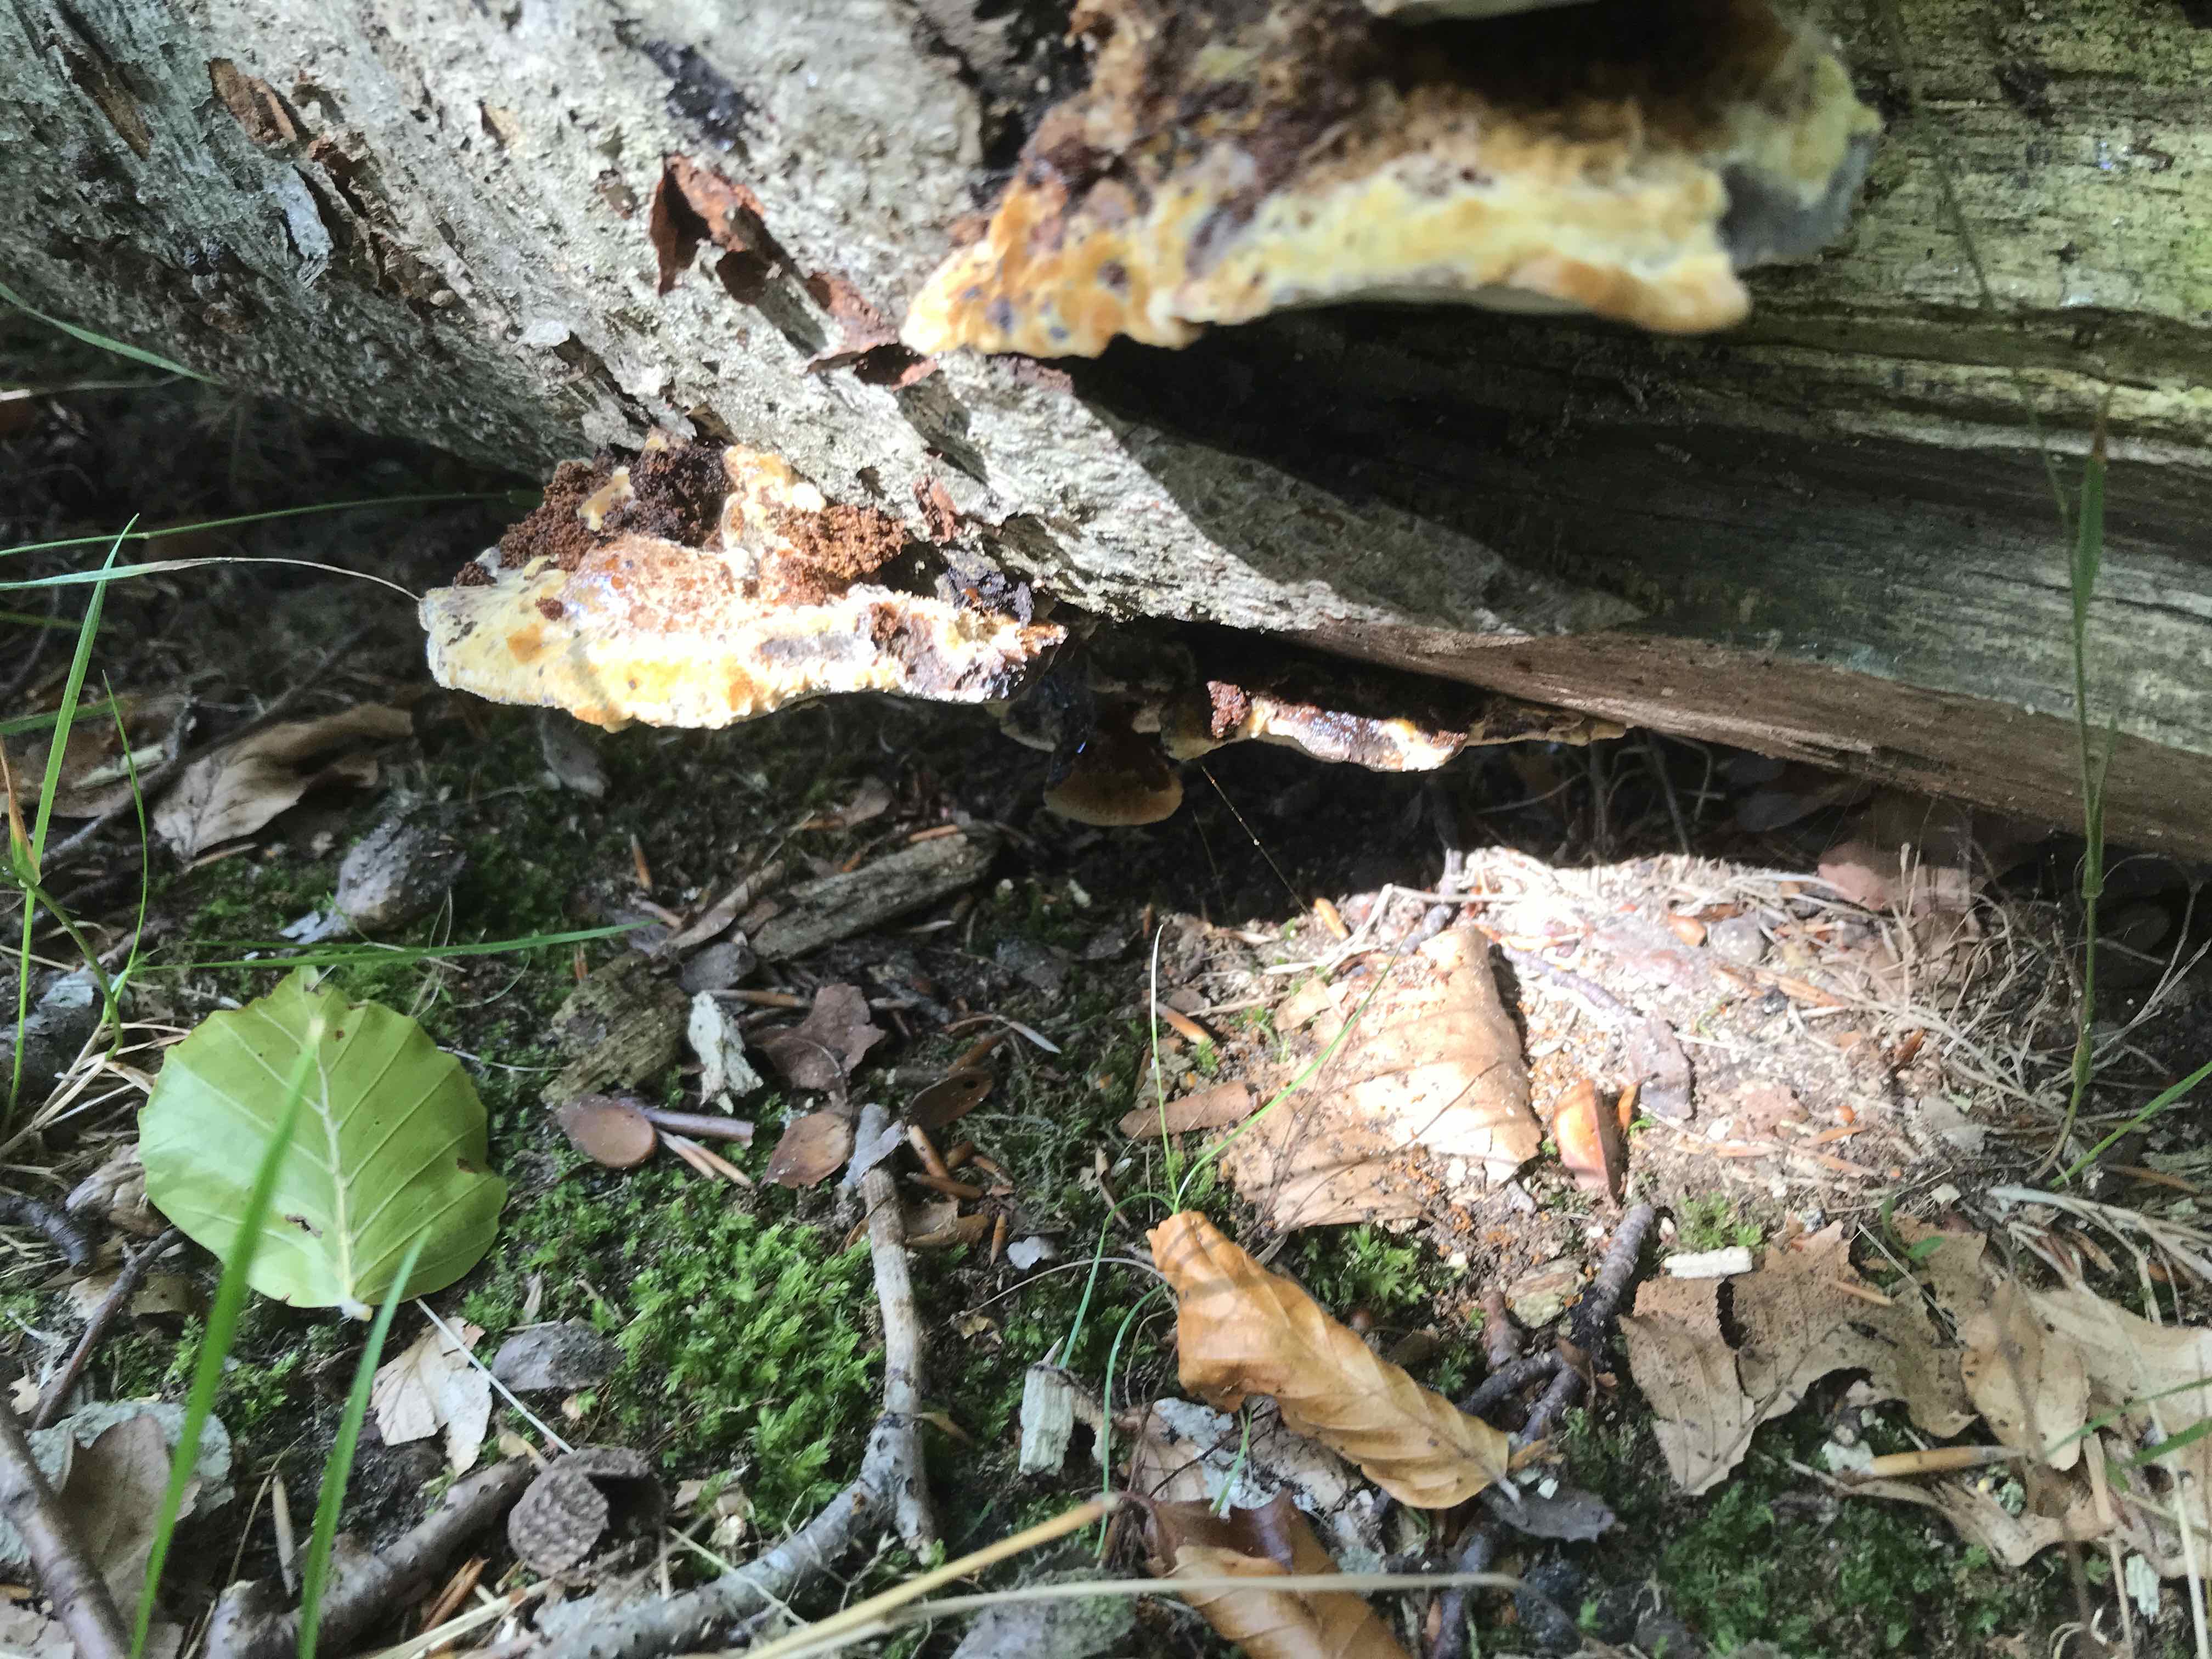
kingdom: Fungi
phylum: Basidiomycota
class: Agaricomycetes
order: Hymenochaetales
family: Hymenochaetaceae
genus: Inonotus
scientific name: Inonotus cuticularis
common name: kroghåret spejlporesvamp
